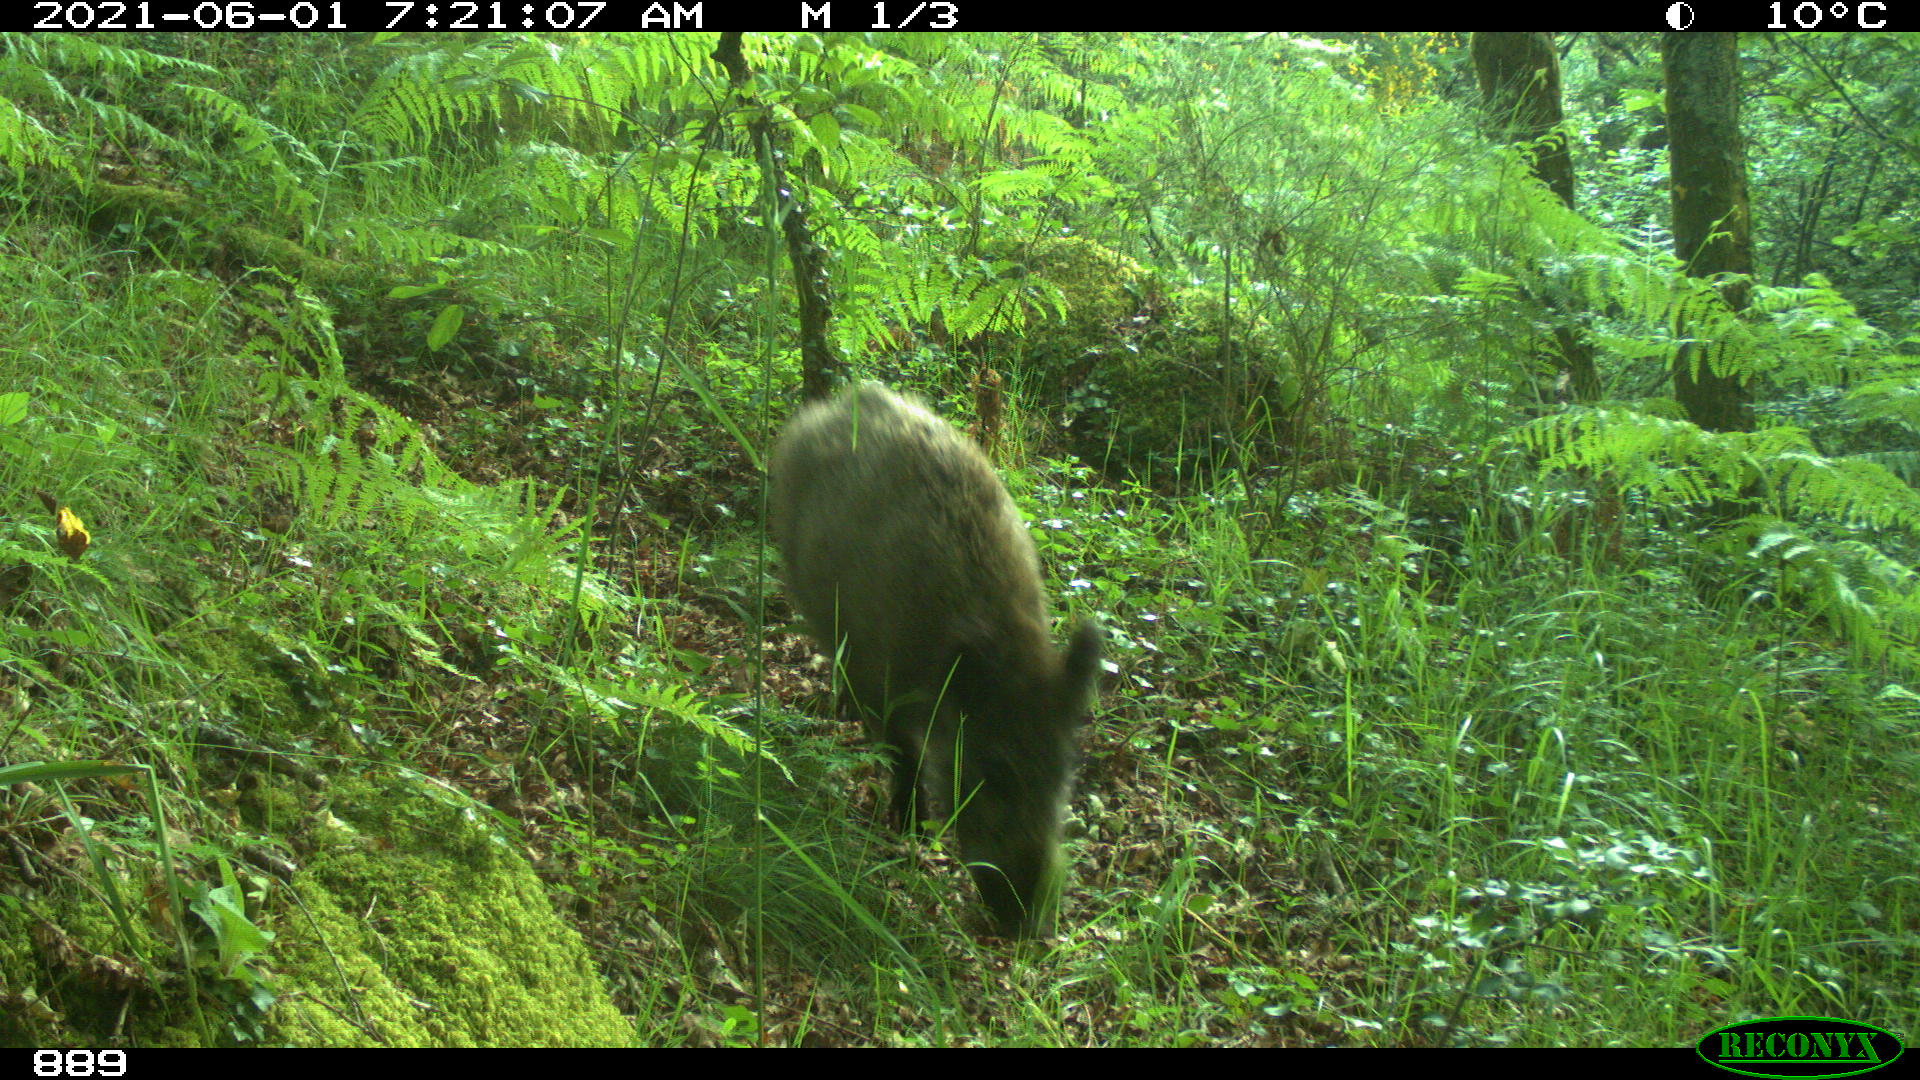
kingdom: Animalia
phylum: Chordata
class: Mammalia
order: Artiodactyla
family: Suidae
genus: Sus
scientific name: Sus scrofa
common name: Wild boar
